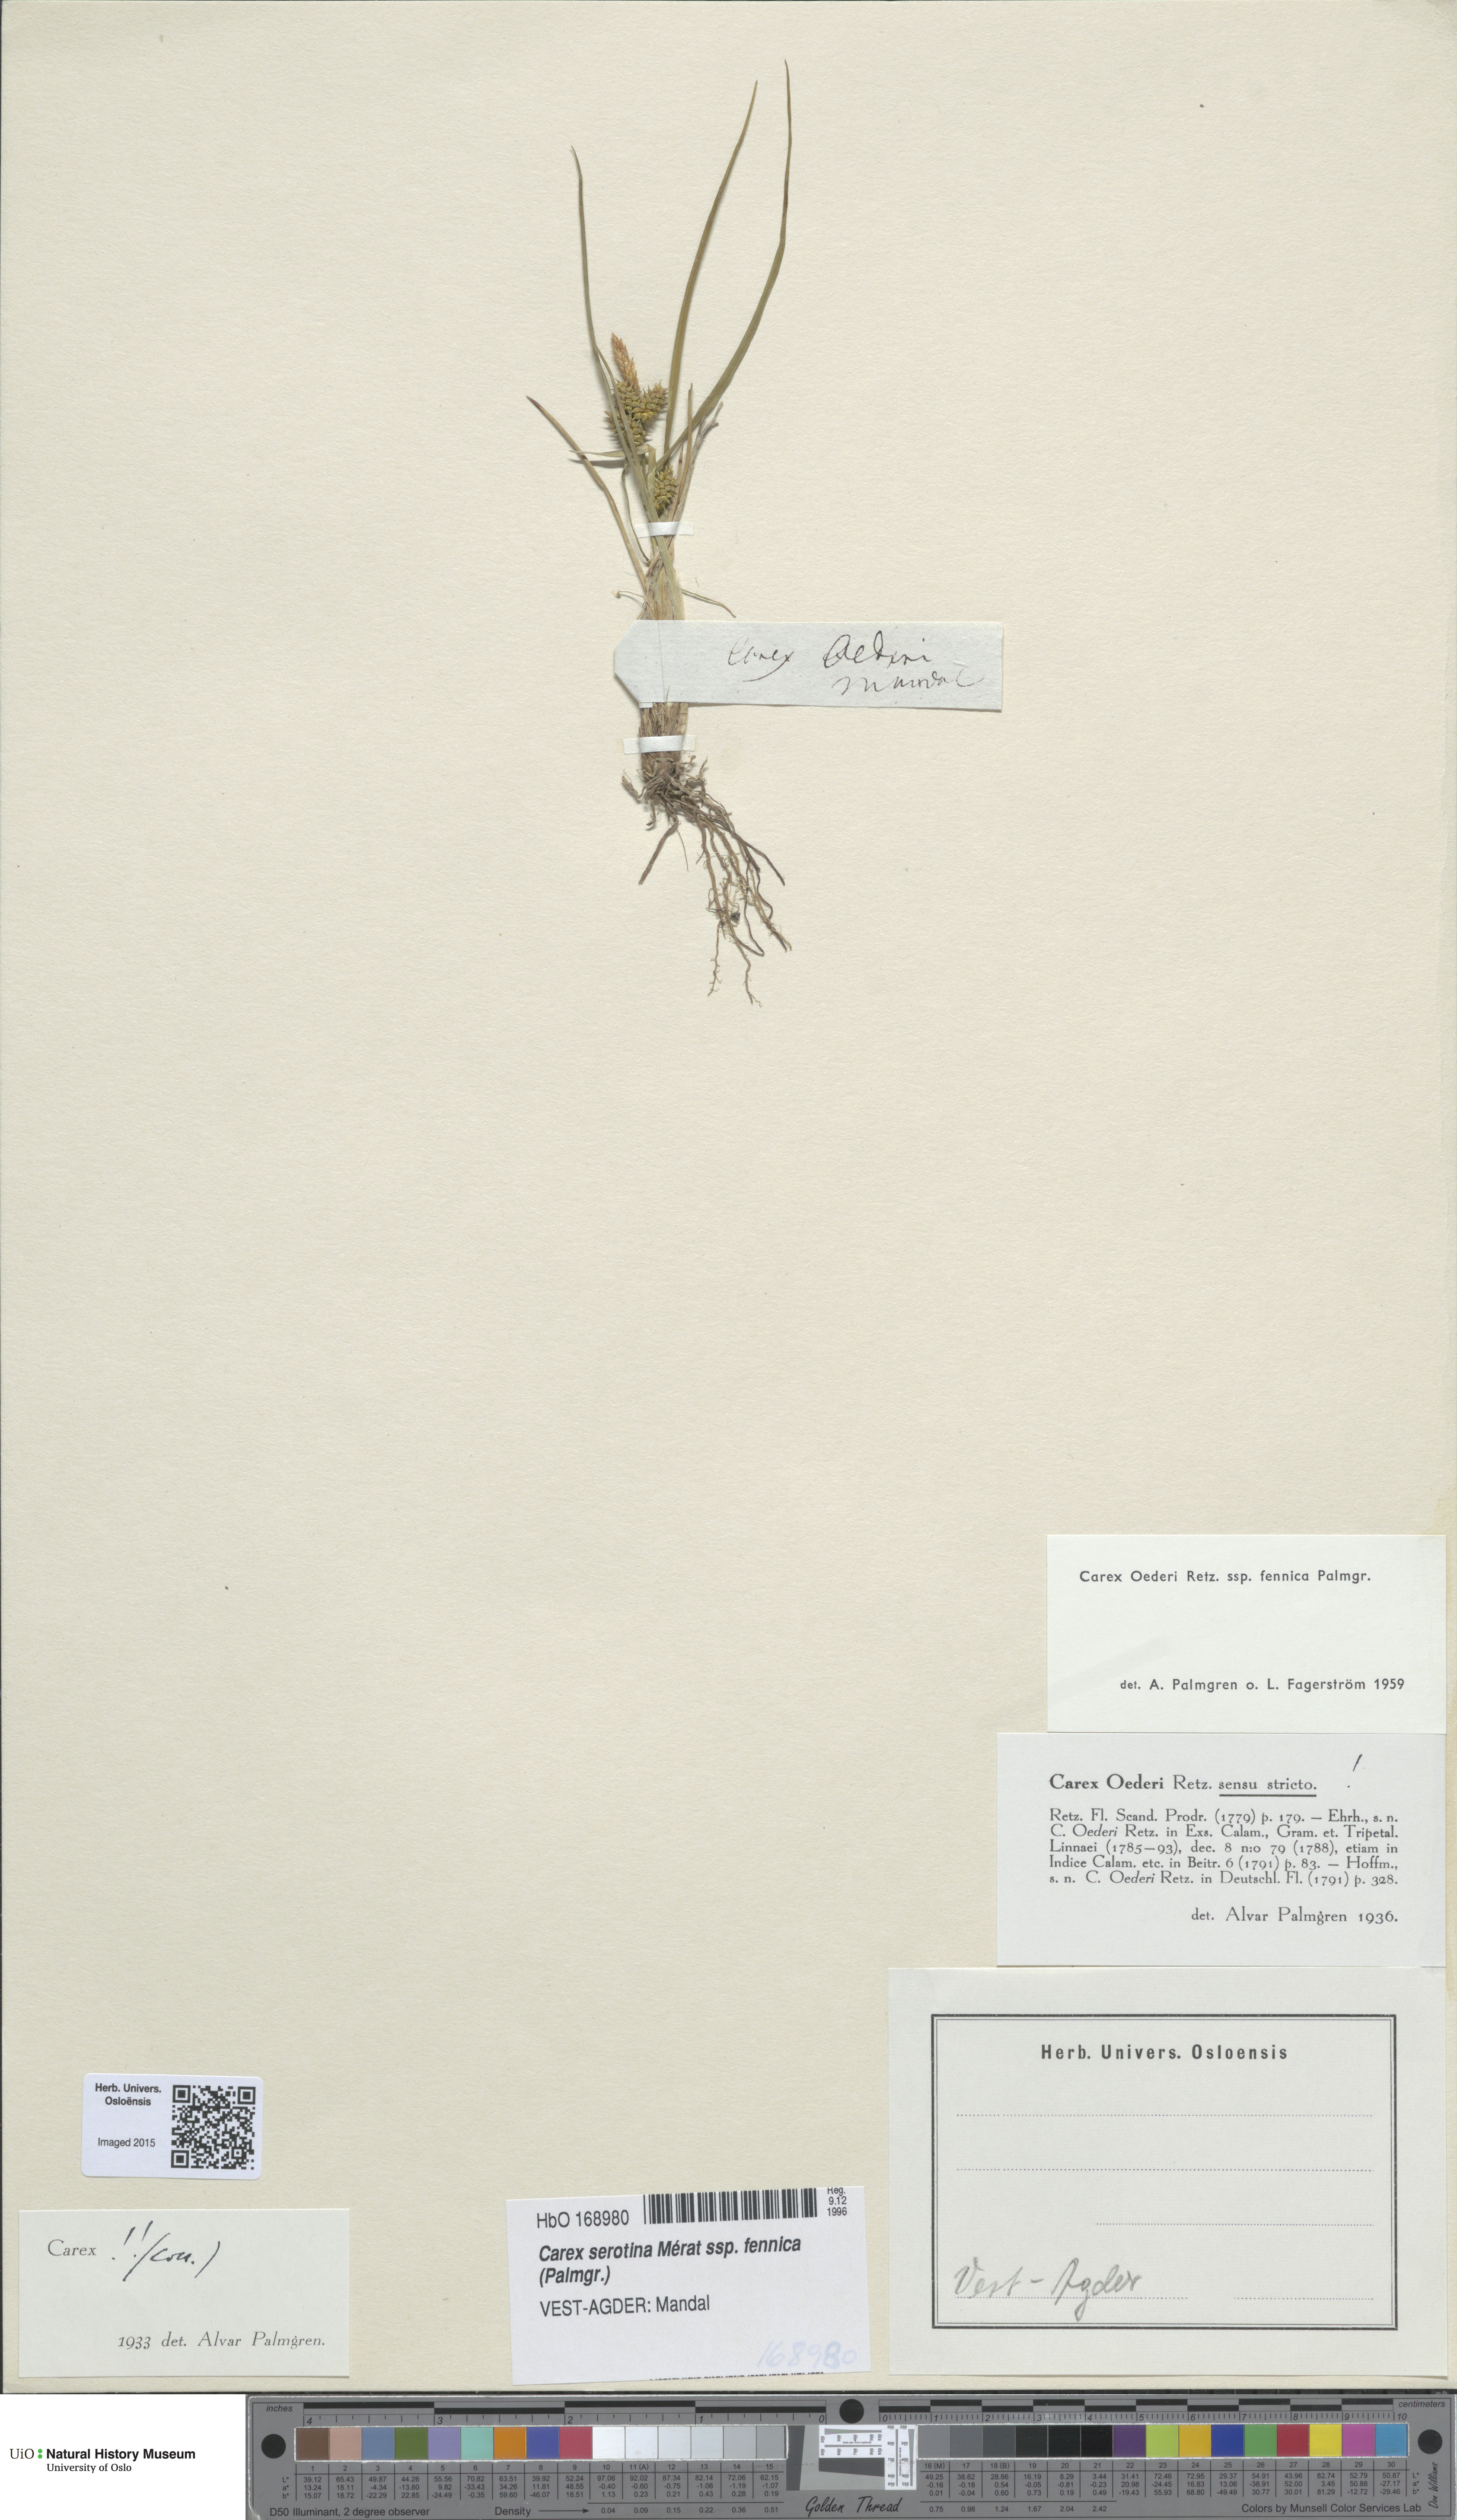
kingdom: Plantae
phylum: Tracheophyta
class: Liliopsida
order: Poales
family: Cyperaceae
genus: Carex
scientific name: Carex
